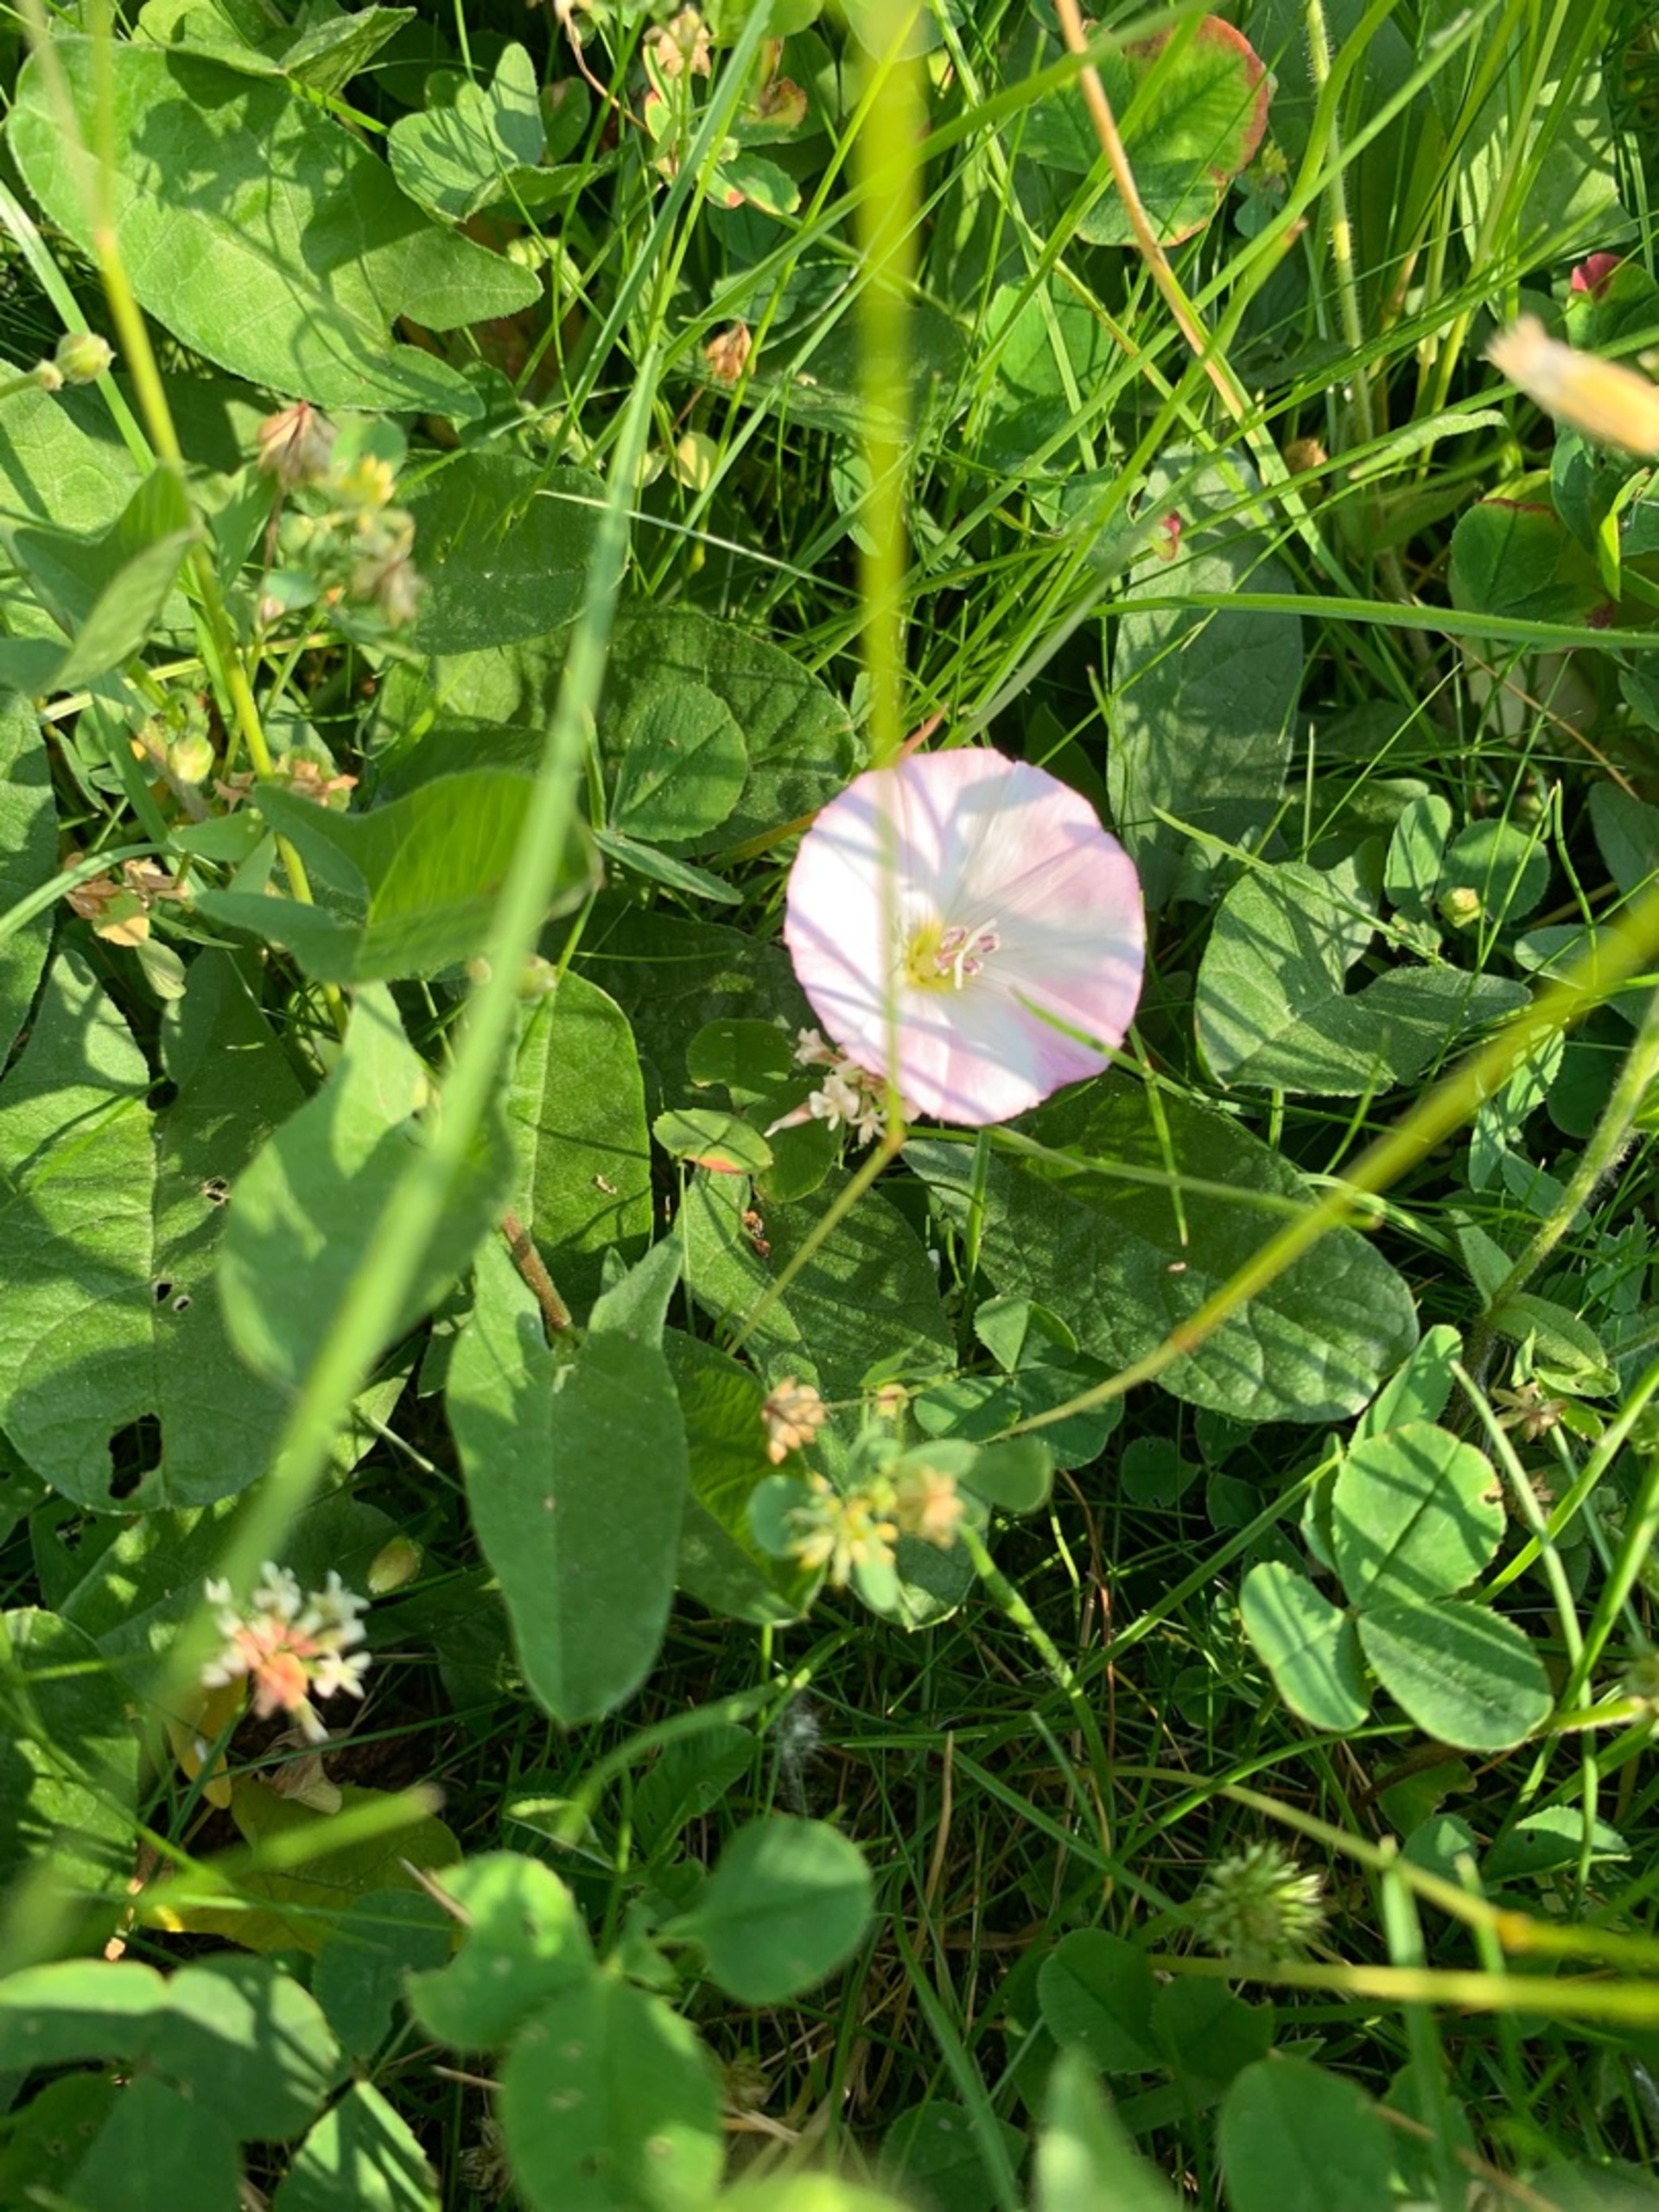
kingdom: Plantae
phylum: Tracheophyta
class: Magnoliopsida
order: Solanales
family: Convolvulaceae
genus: Convolvulus
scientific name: Convolvulus arvensis
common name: Ager-snerle
